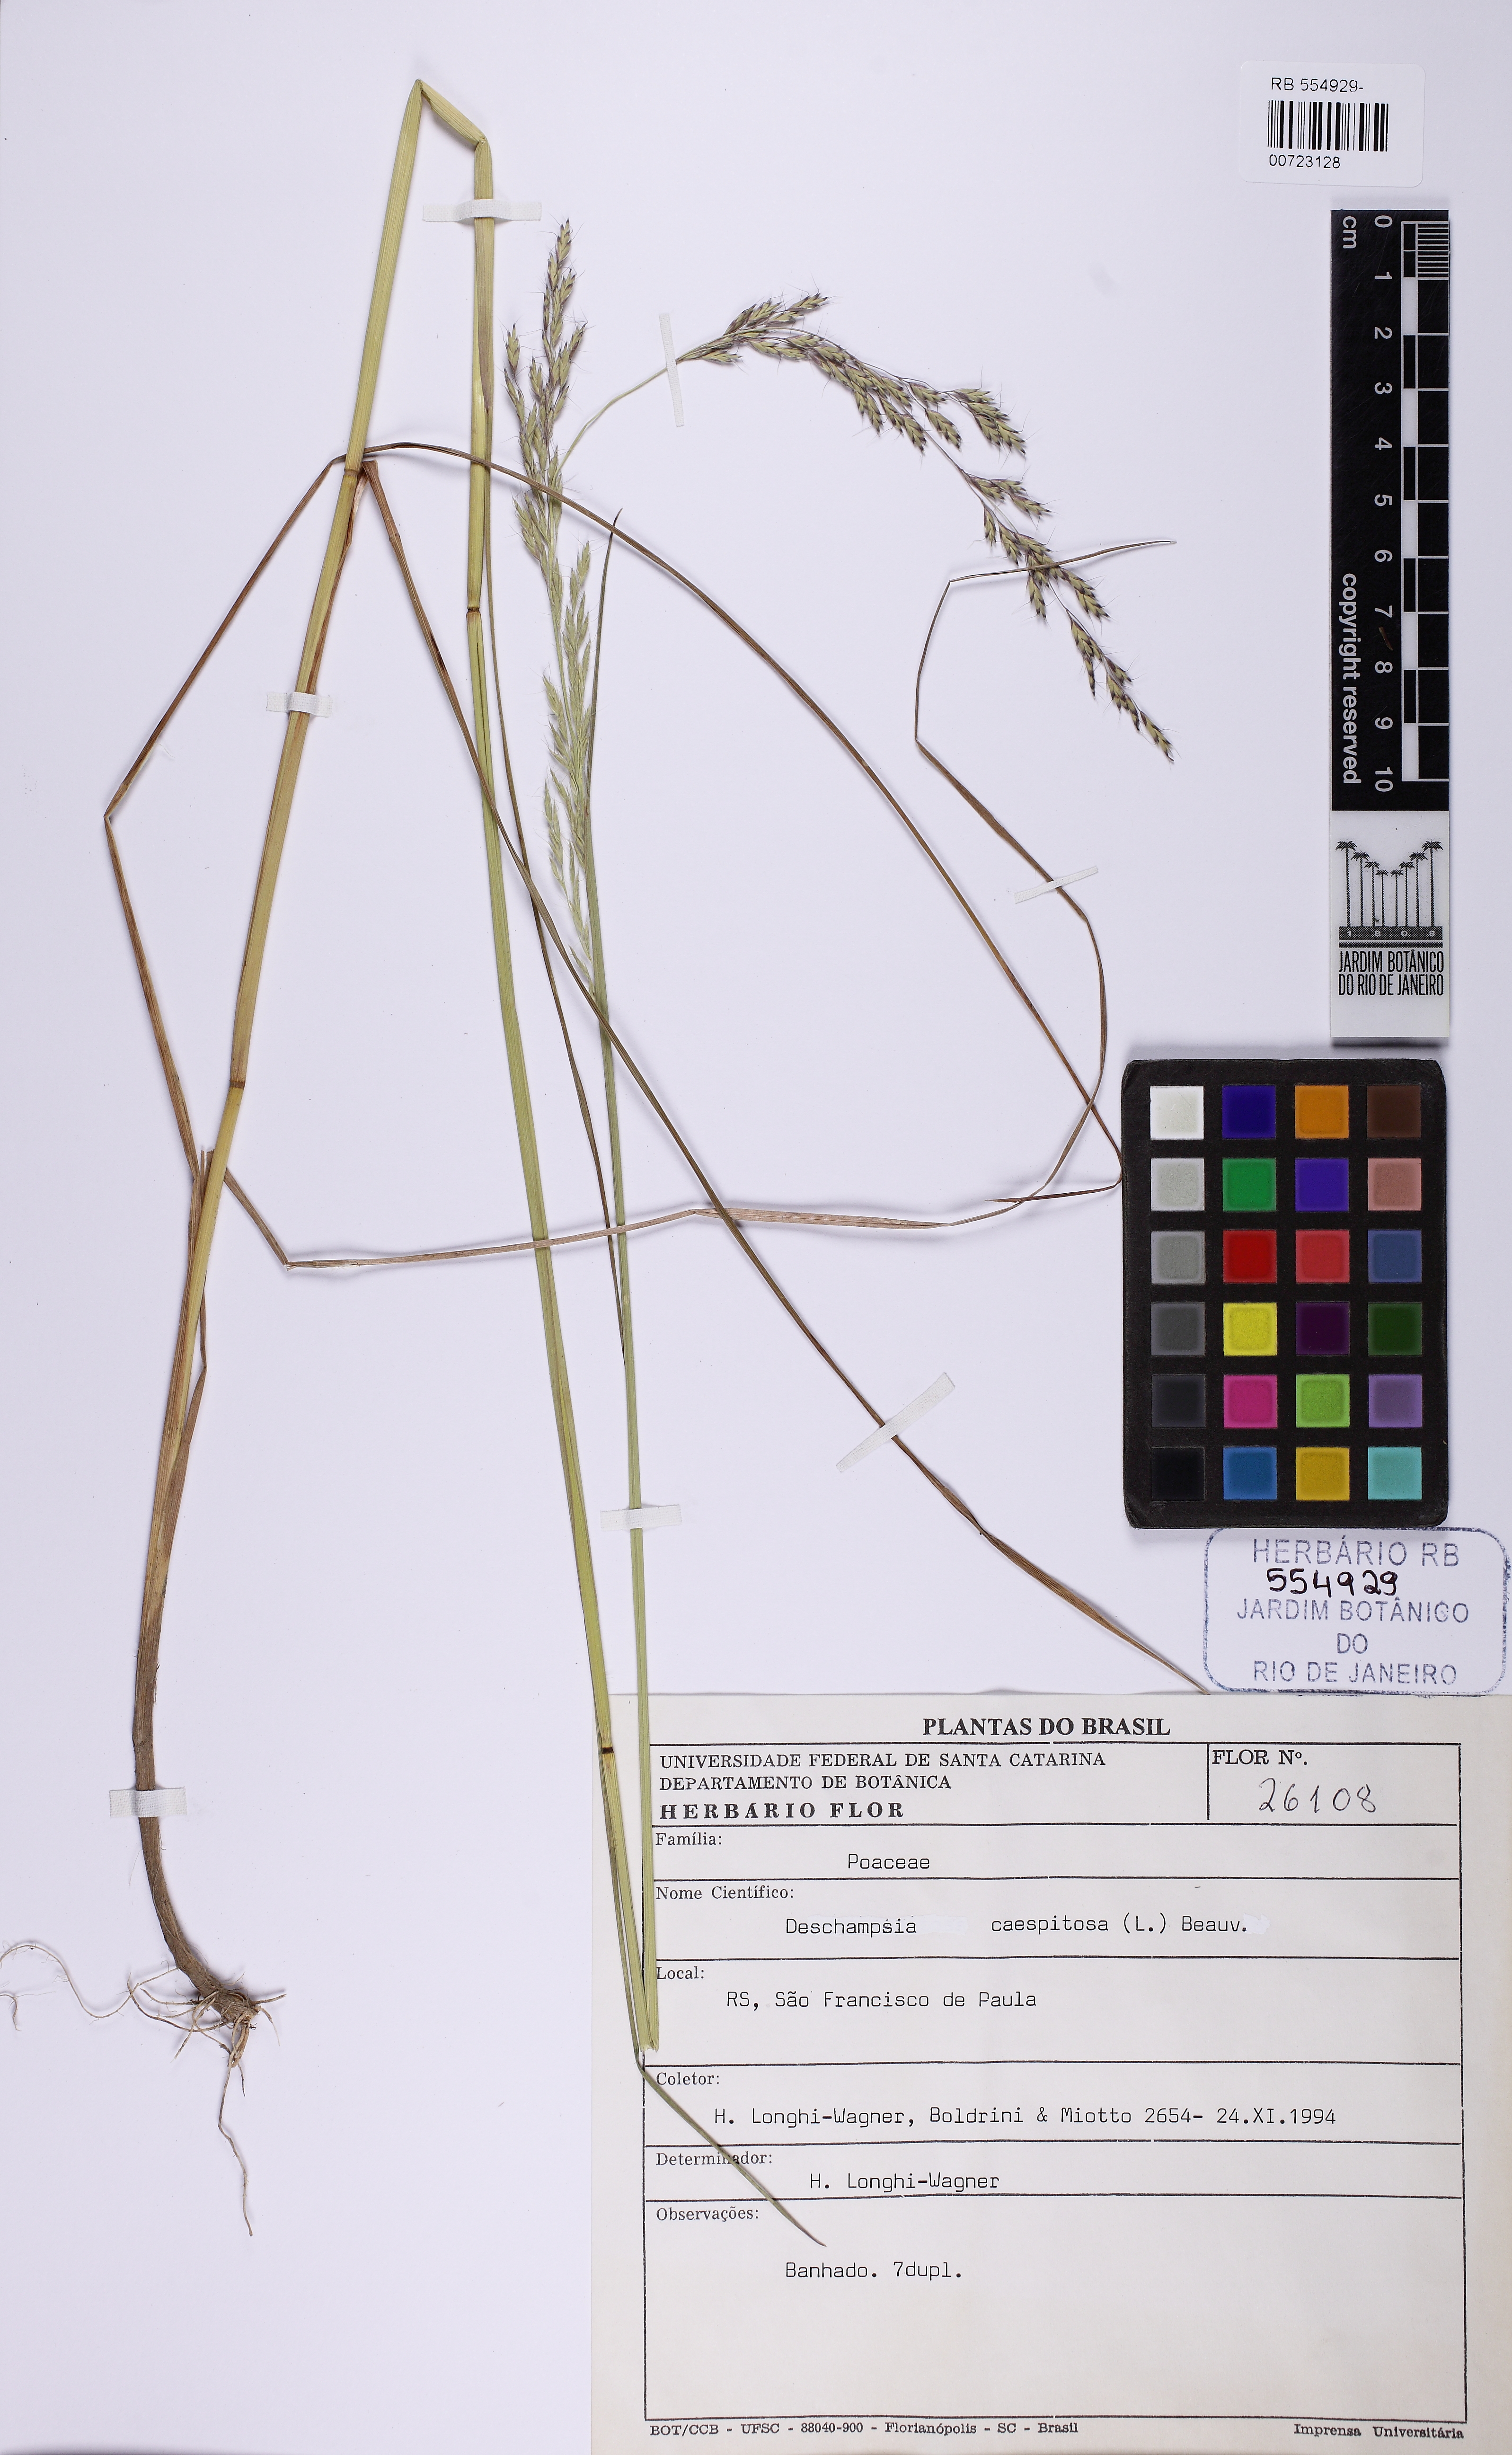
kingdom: Plantae
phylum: Tracheophyta
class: Liliopsida
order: Poales
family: Poaceae
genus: Deschampsia
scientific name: Deschampsia cespitosa
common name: Tufted hair-grass
